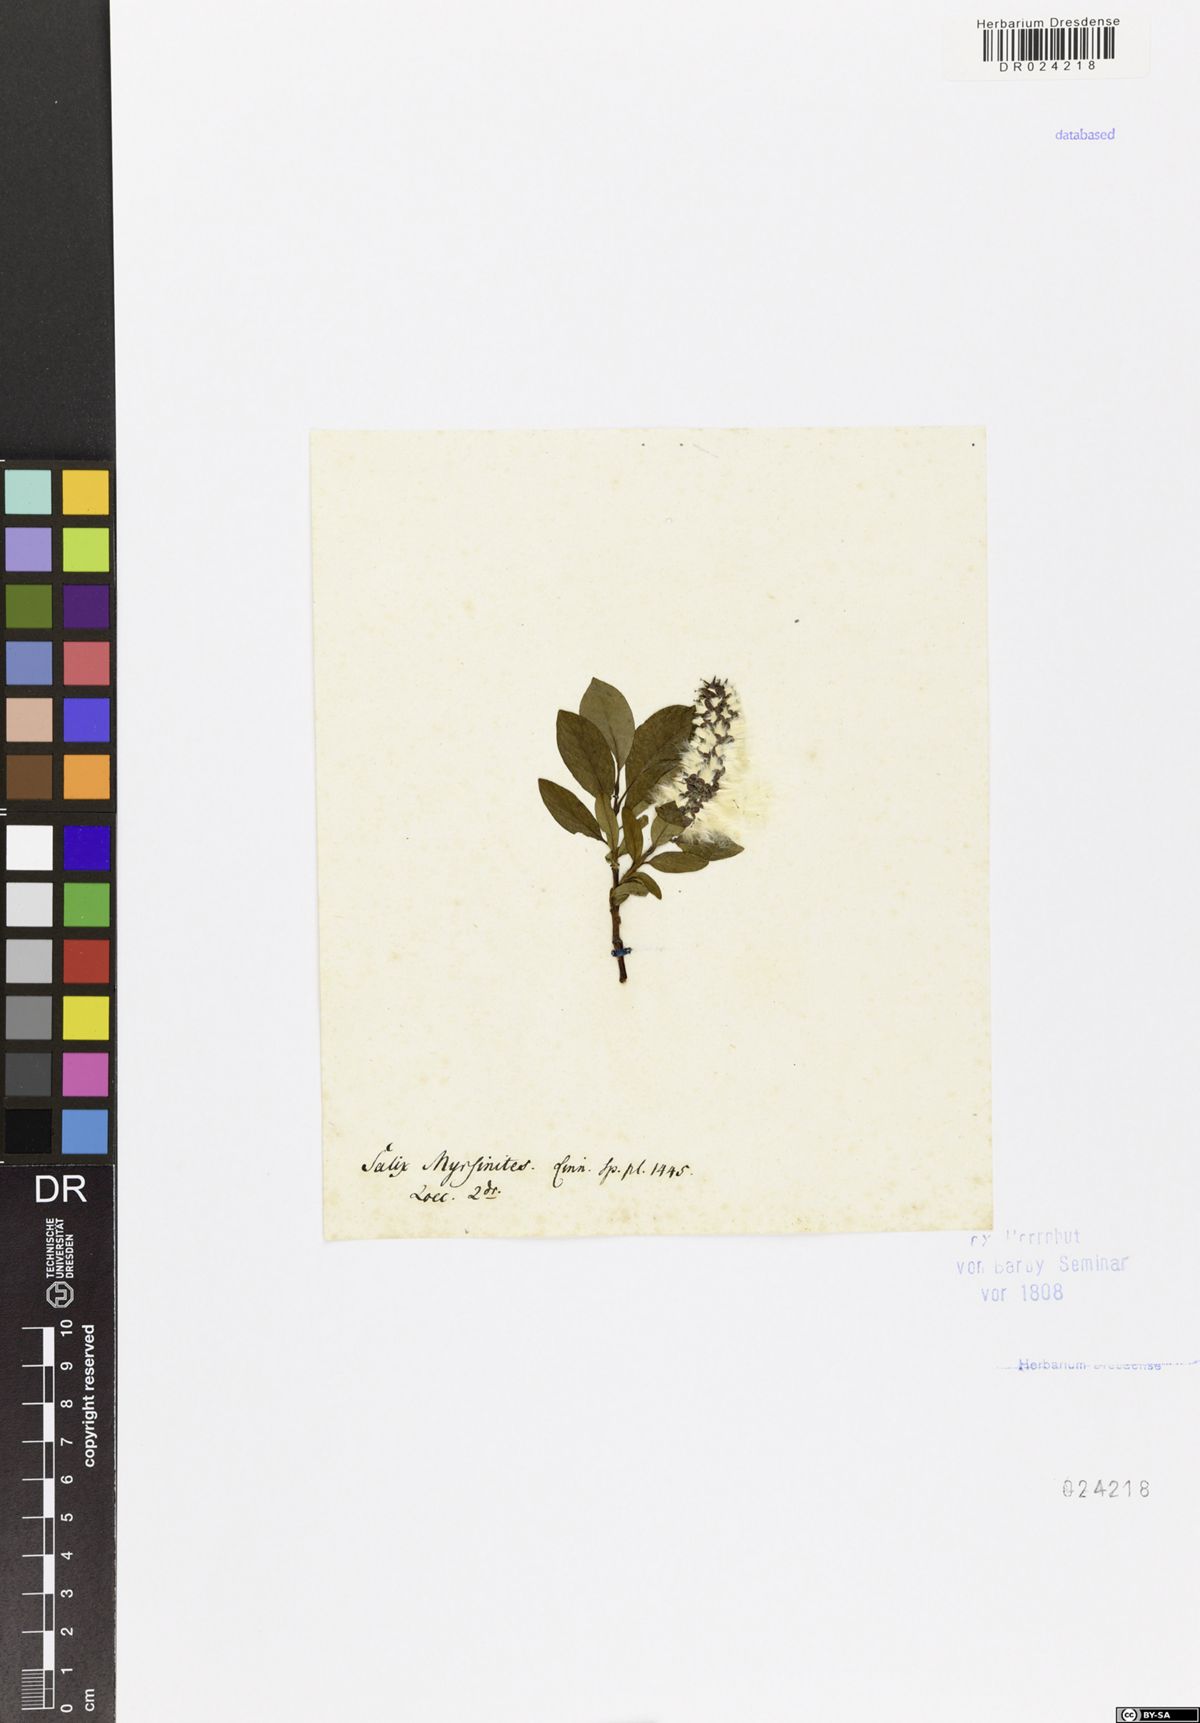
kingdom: Plantae
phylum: Tracheophyta
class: Magnoliopsida
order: Malpighiales
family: Salicaceae
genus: Salix
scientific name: Salix myrsinifolia
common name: Dark-leaved willow
